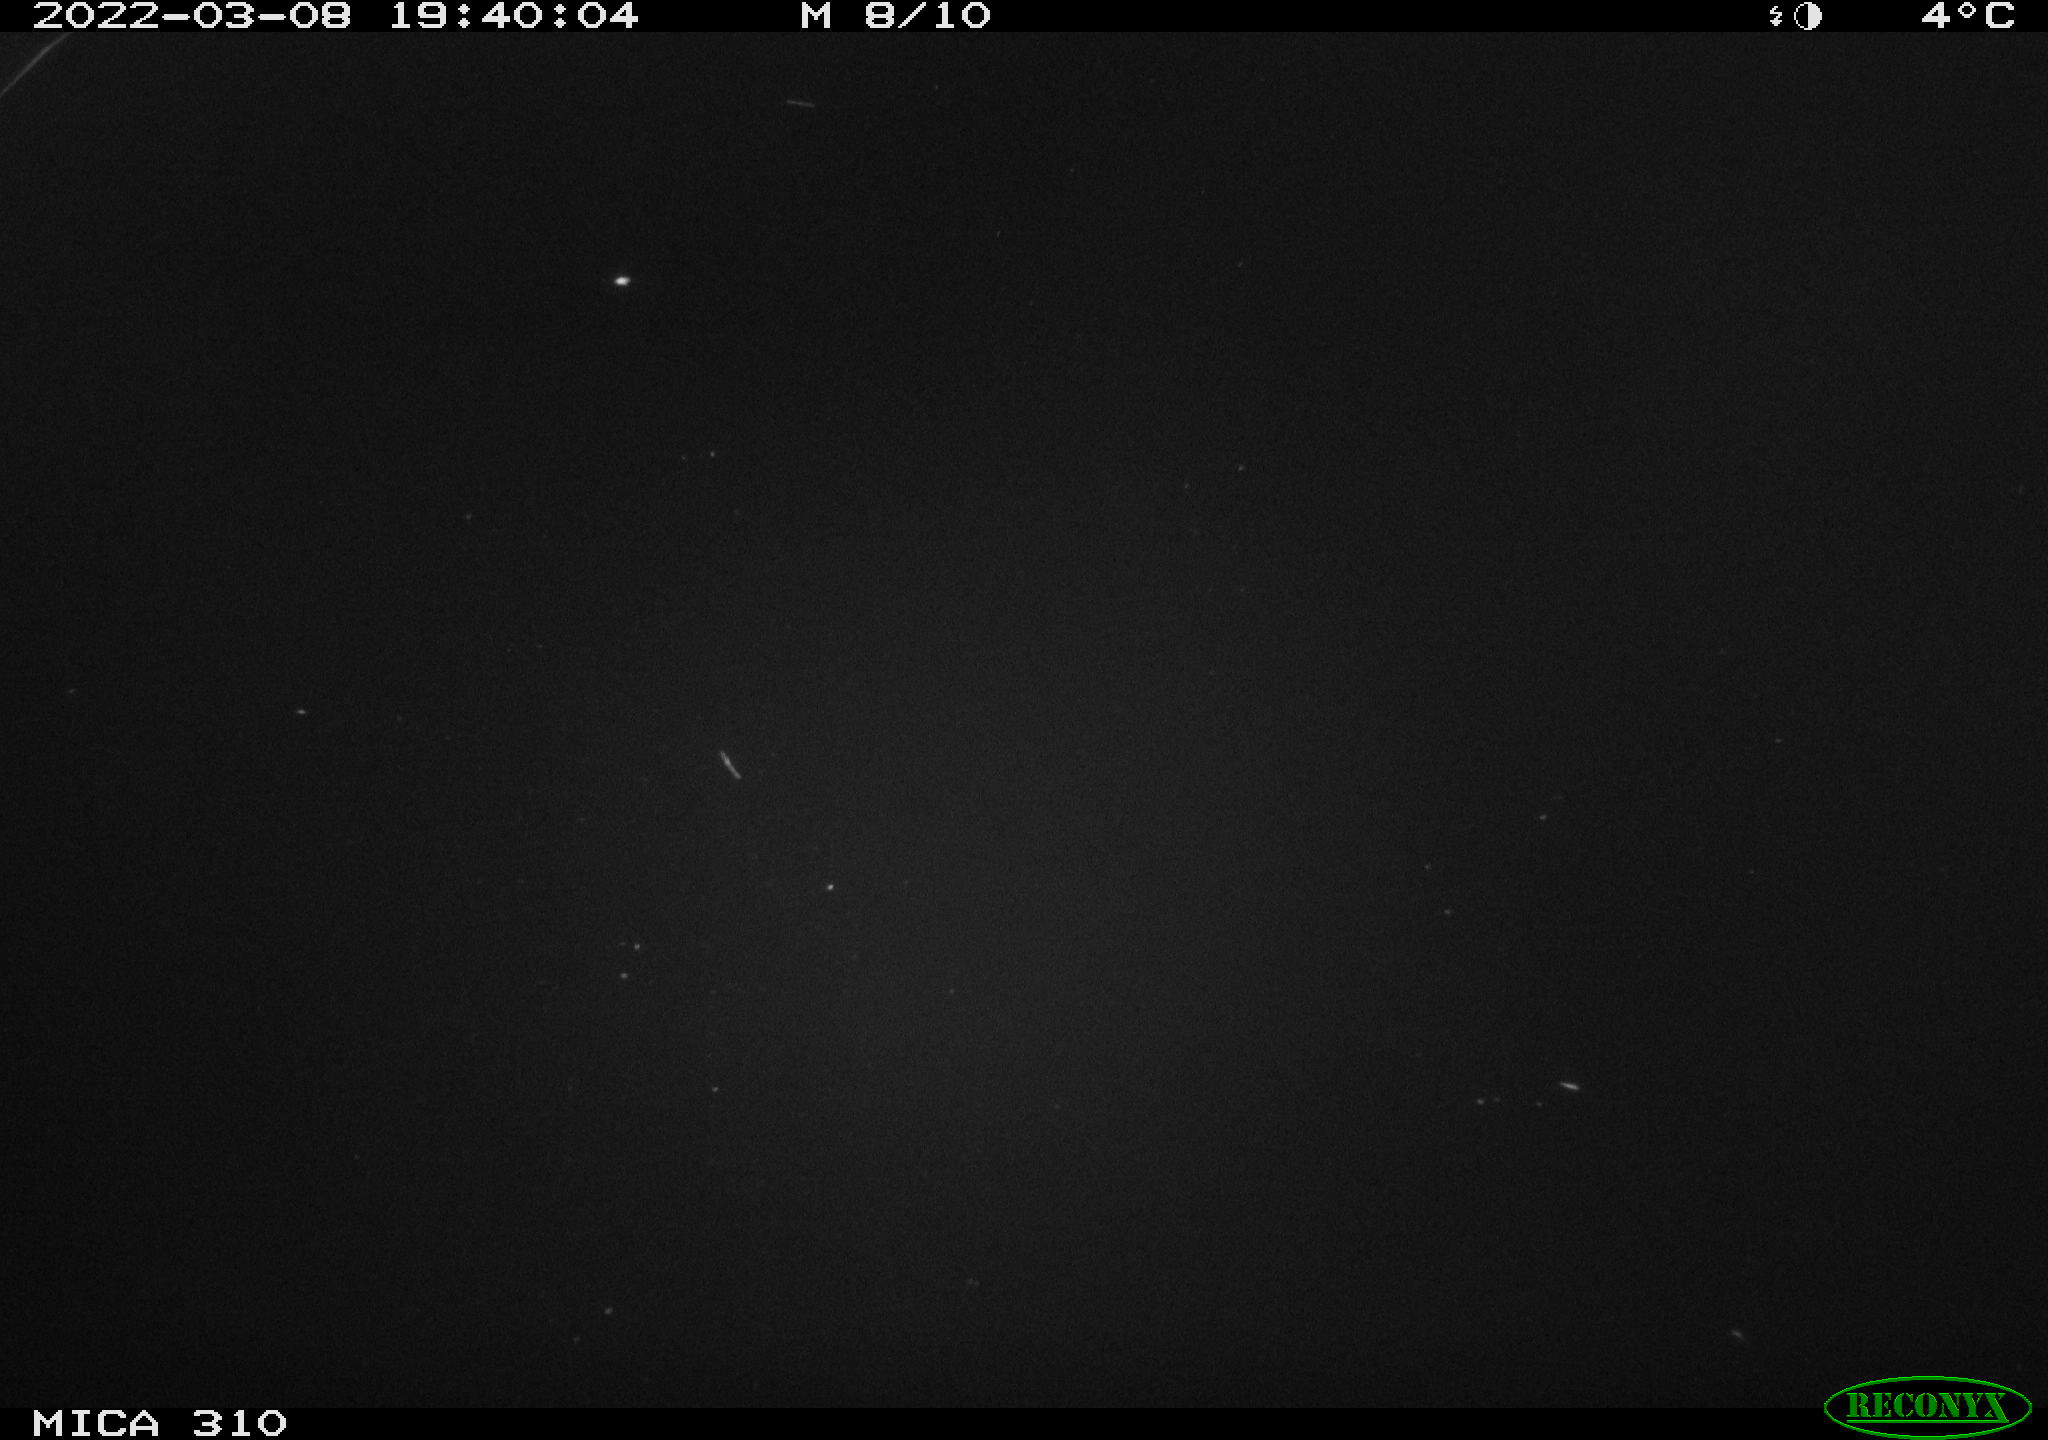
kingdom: Animalia
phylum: Chordata
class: Aves
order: Anseriformes
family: Anatidae
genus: Anas
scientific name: Anas platyrhynchos
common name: Mallard
